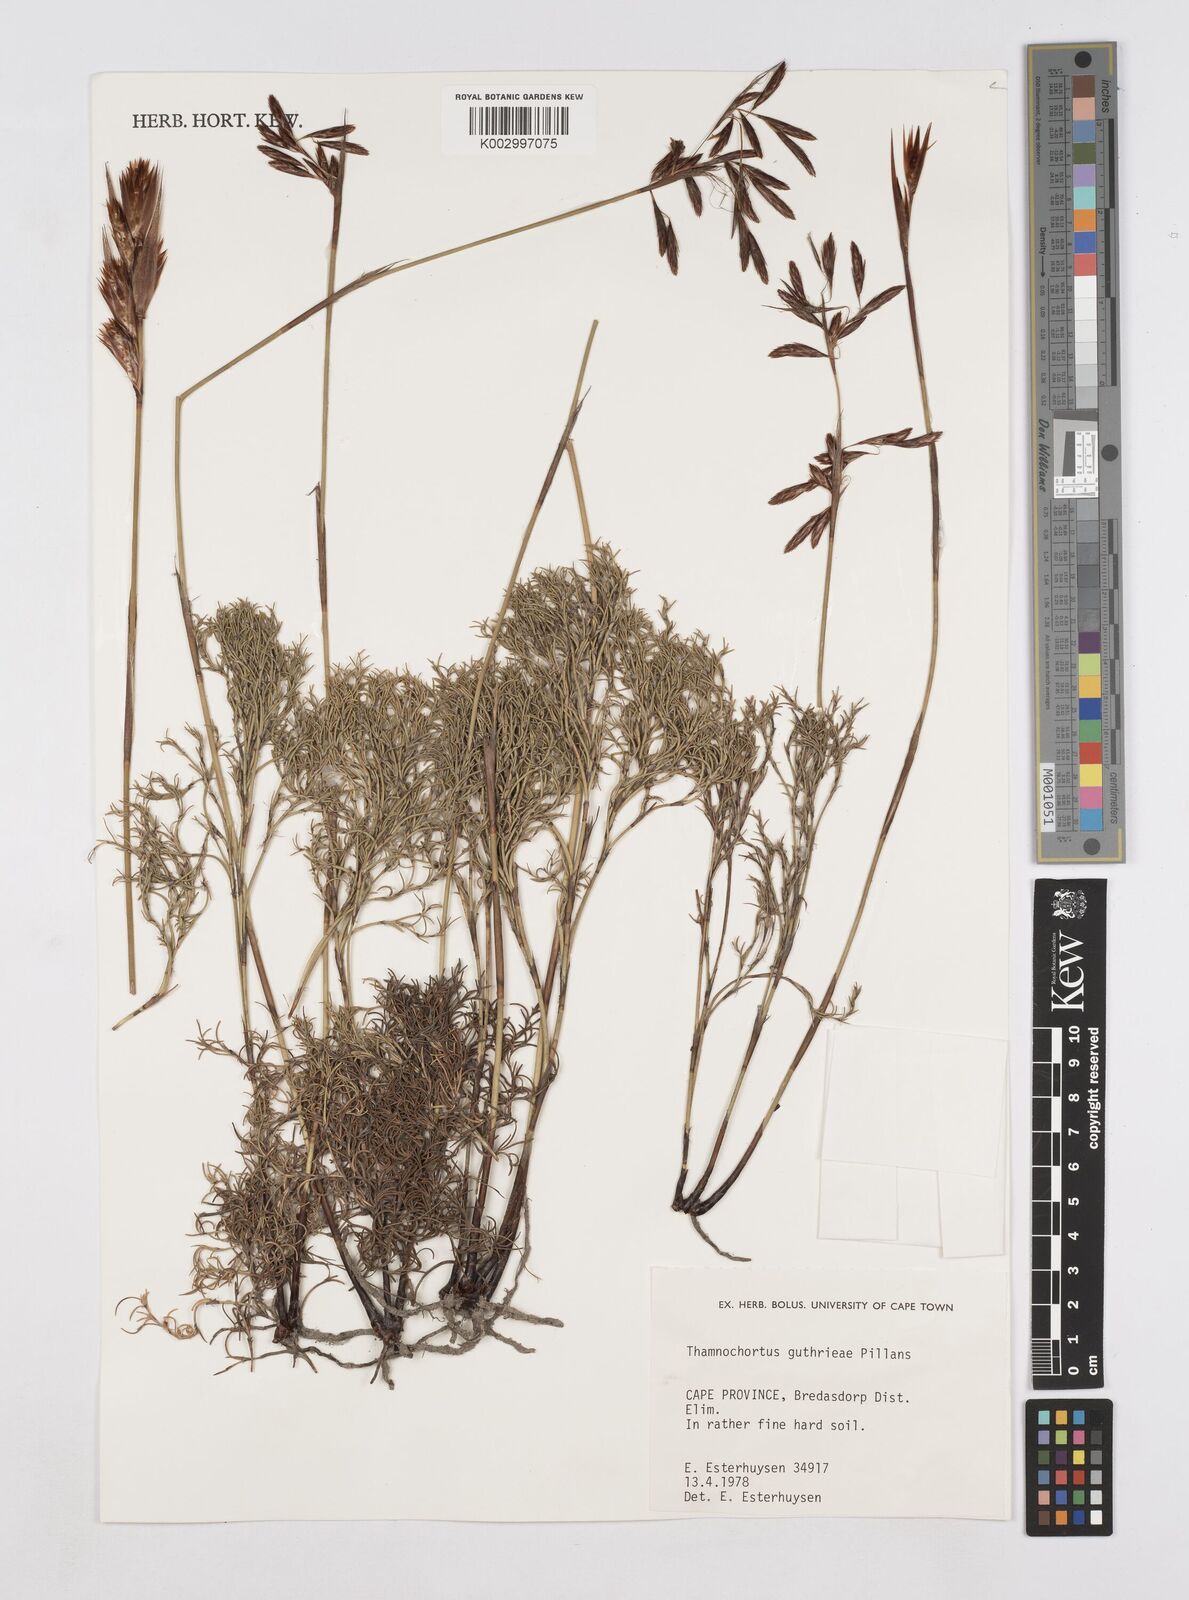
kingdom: Plantae
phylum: Tracheophyta
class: Liliopsida
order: Poales
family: Restionaceae
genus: Thamnochortus
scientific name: Thamnochortus guthrieae
